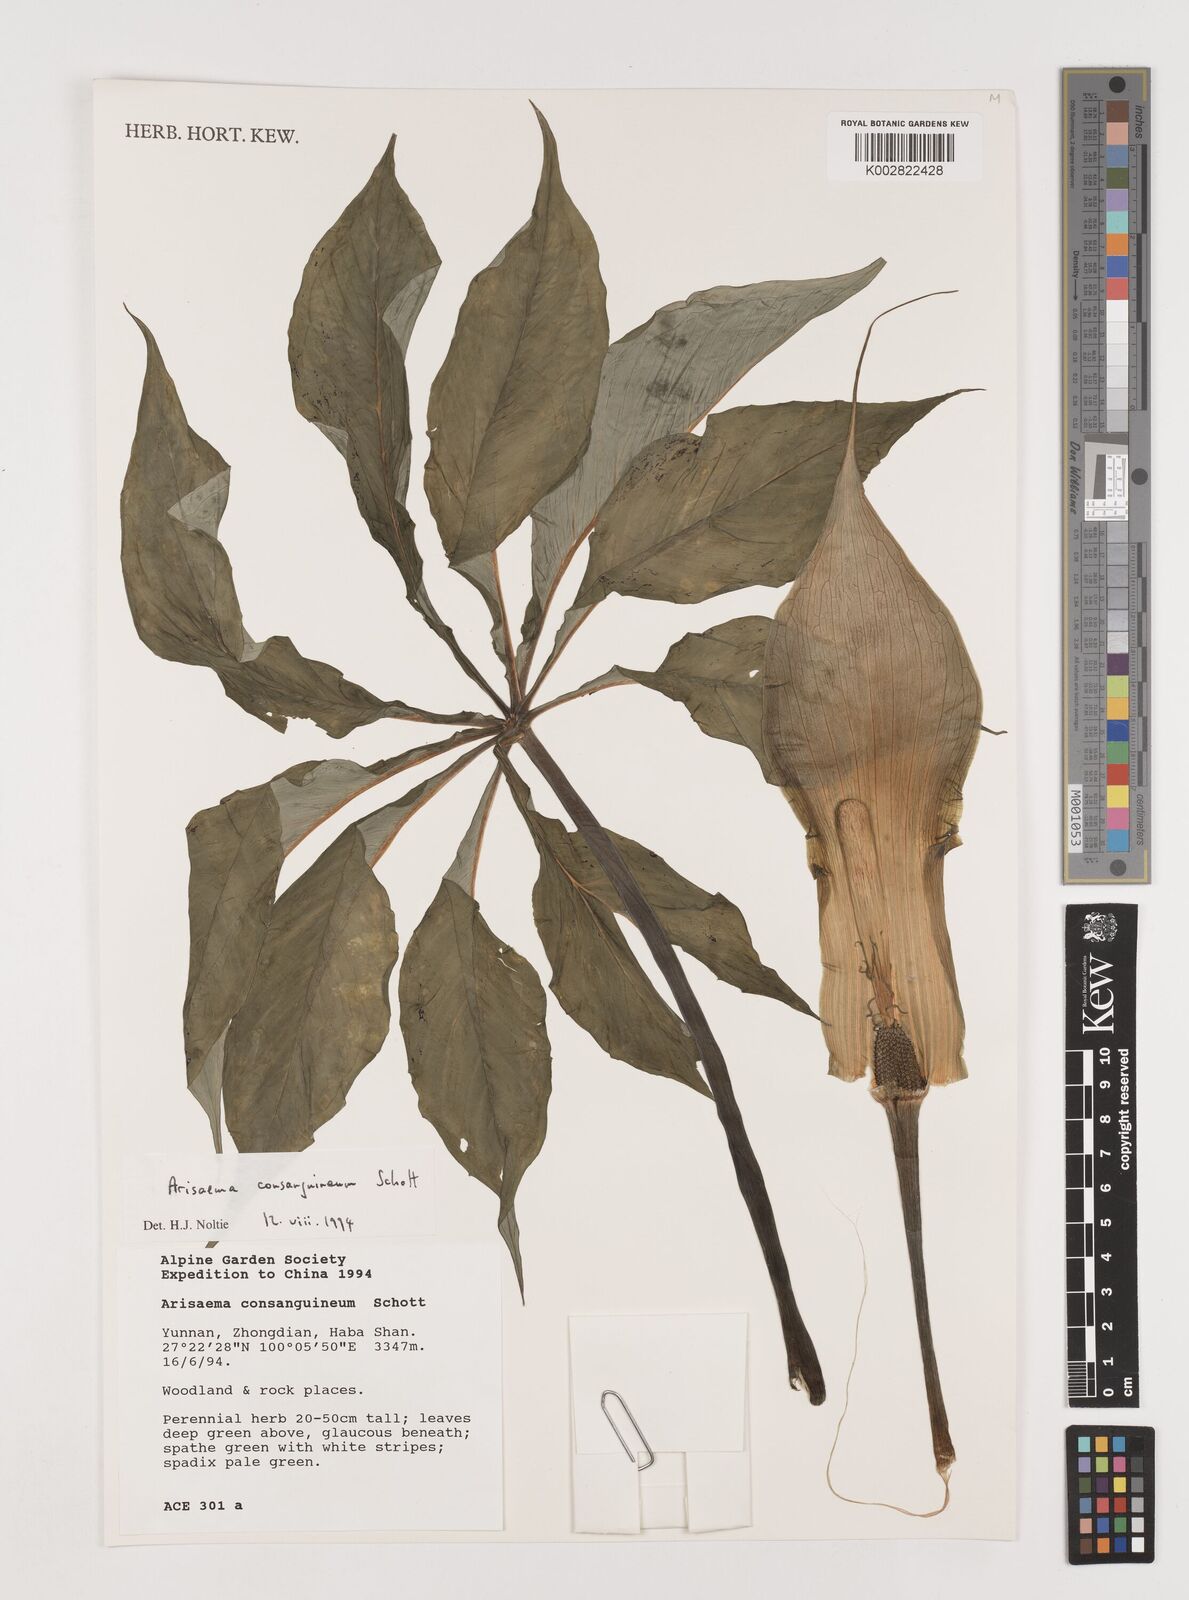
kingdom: Plantae
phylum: Tracheophyta
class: Liliopsida
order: Alismatales
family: Araceae
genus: Arisaema
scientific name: Arisaema erubescens
